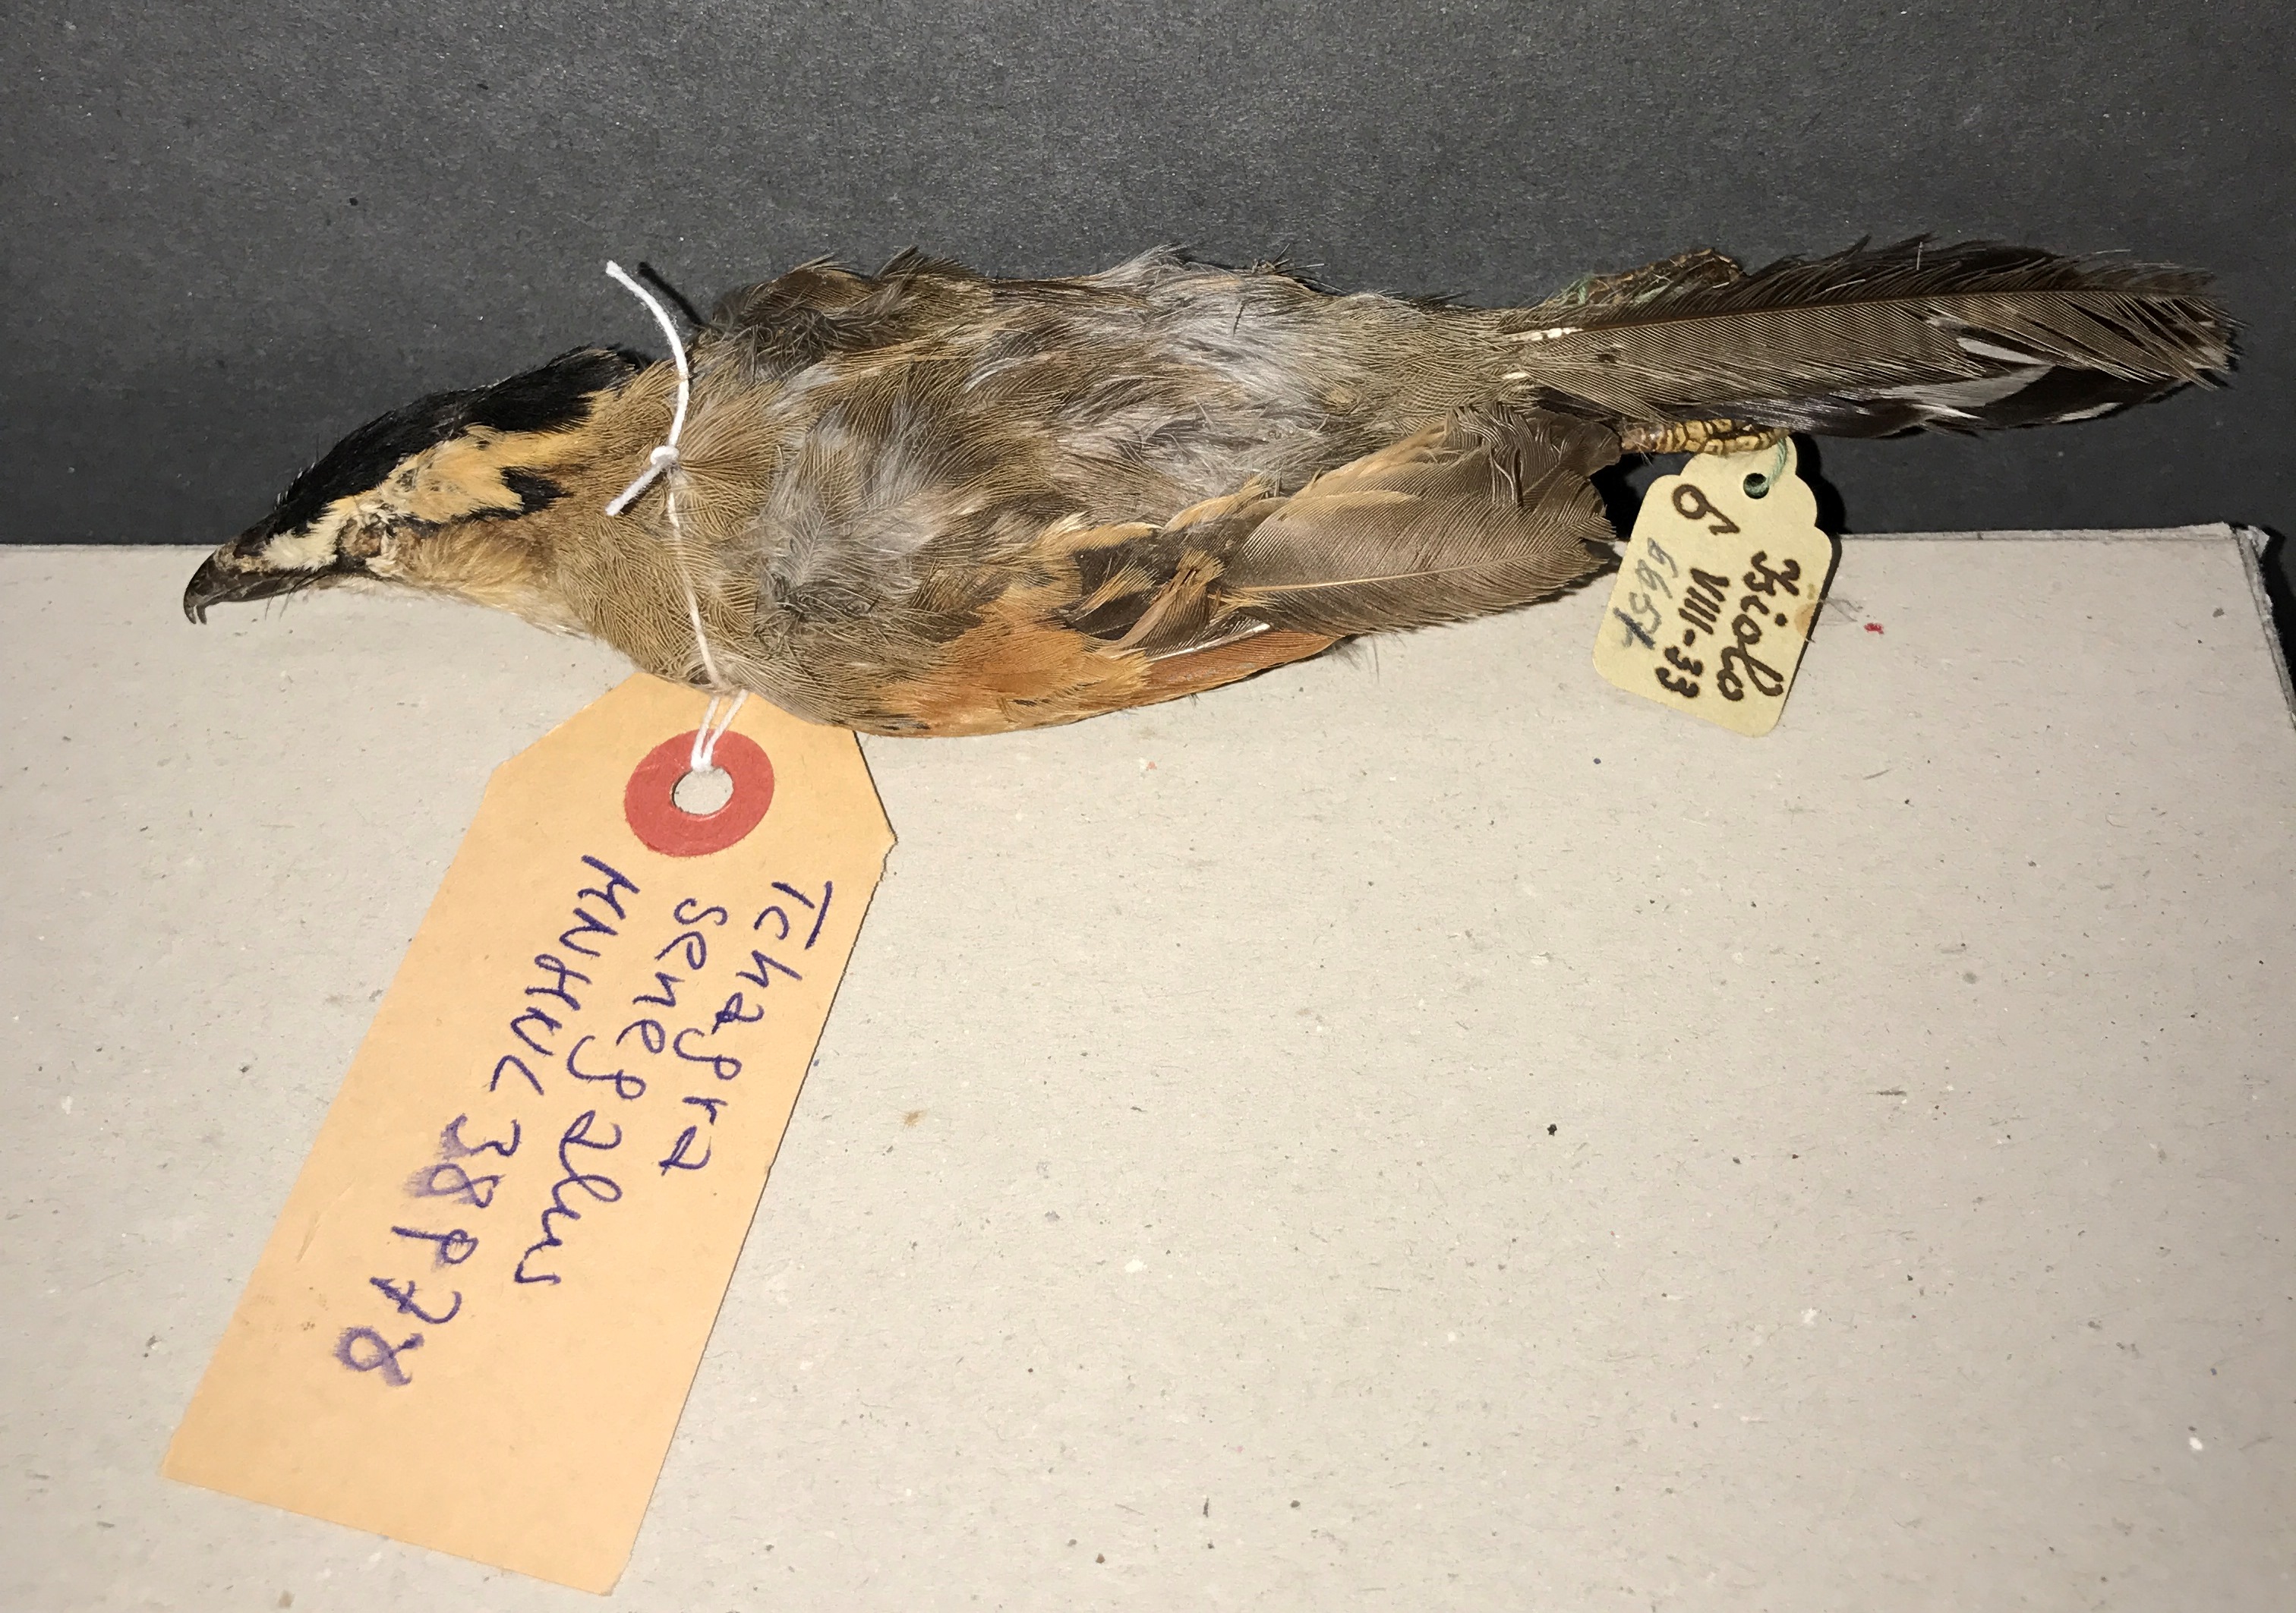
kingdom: Animalia
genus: Tchagra
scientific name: Tchagra senegala
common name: Black-headed tchagra
